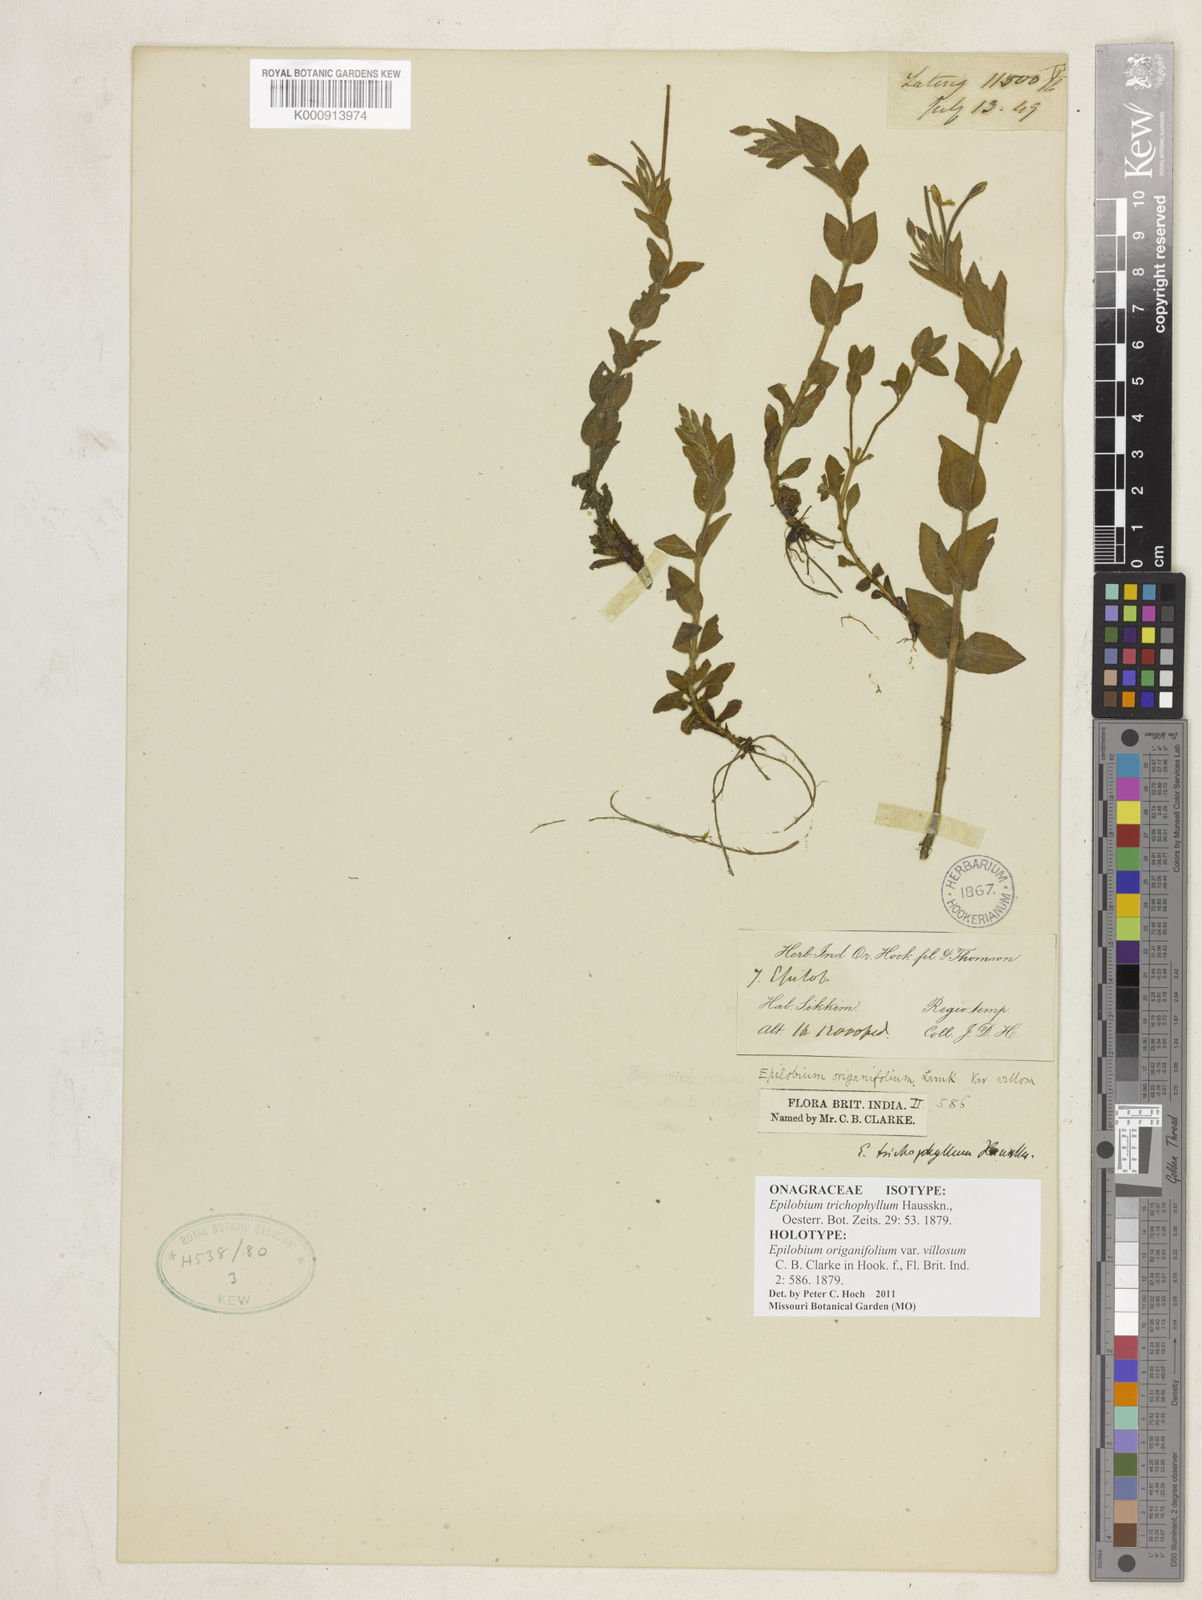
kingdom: Plantae
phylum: Tracheophyta
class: Magnoliopsida
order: Myrtales
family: Onagraceae
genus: Epilobium
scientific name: Epilobium trichophyllum
